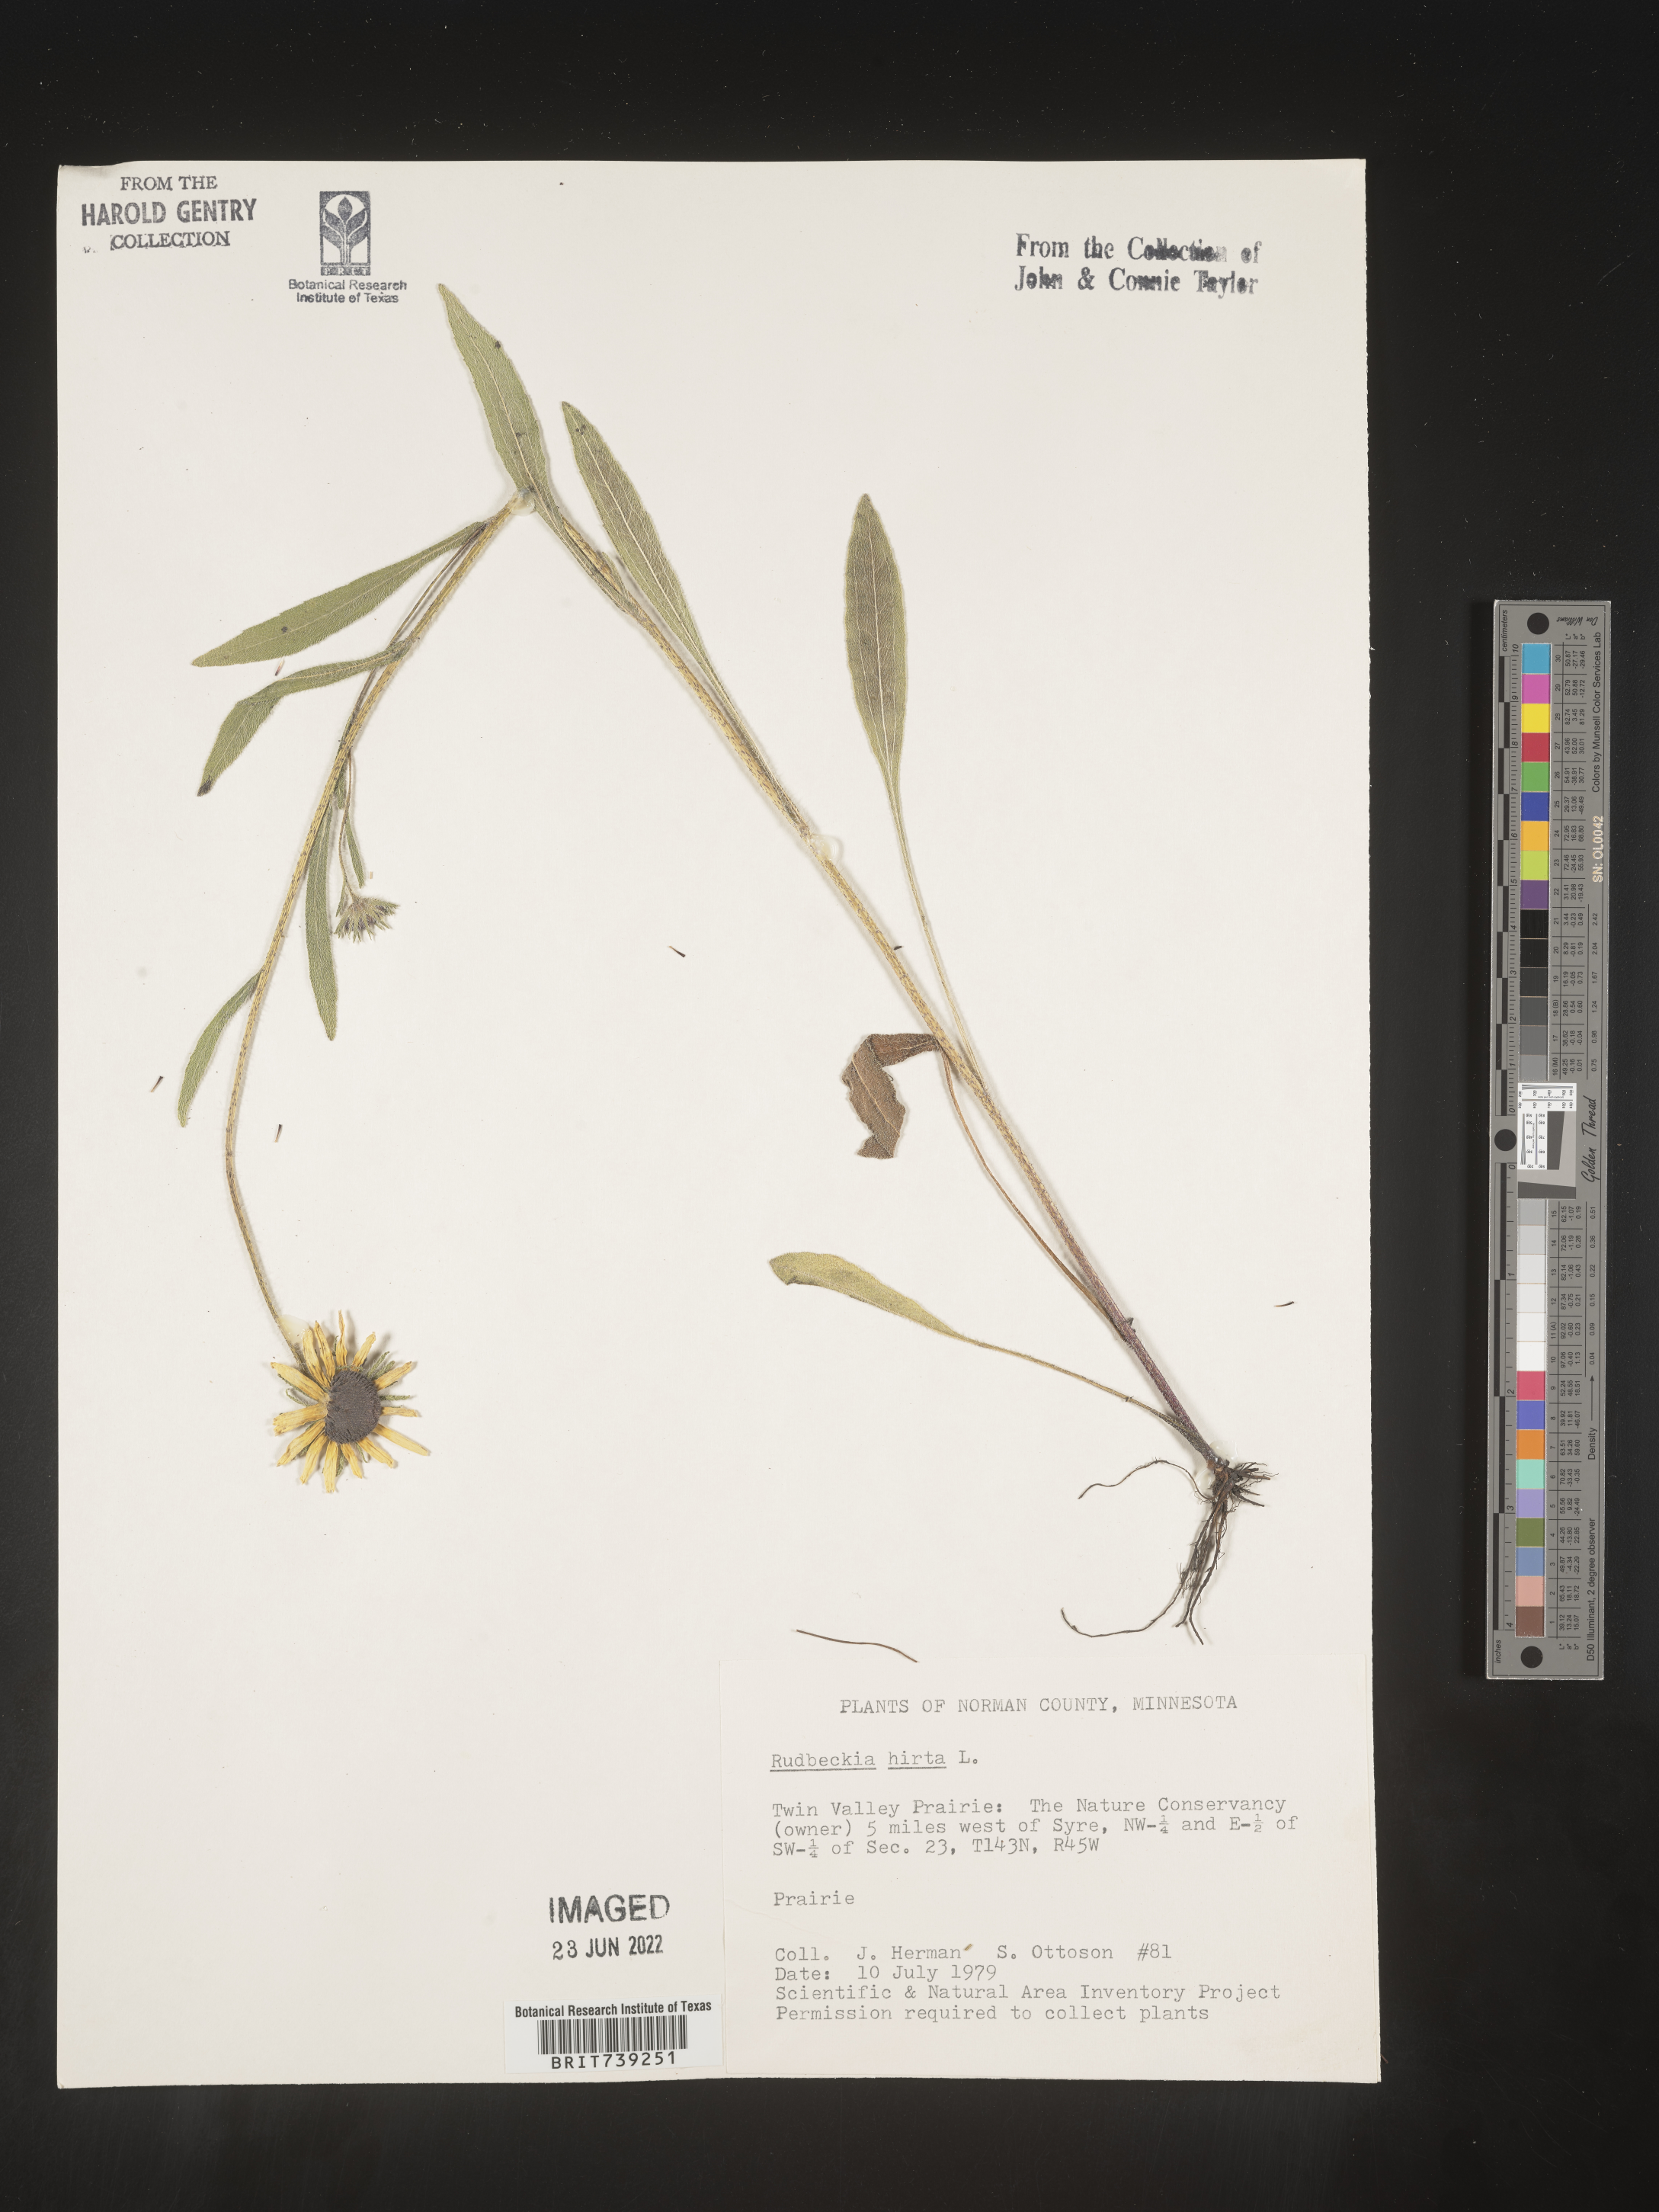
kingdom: Plantae
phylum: Tracheophyta
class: Magnoliopsida
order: Asterales
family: Asteraceae
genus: Rudbeckia
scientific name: Rudbeckia hirta
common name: Black-eyed-susan
